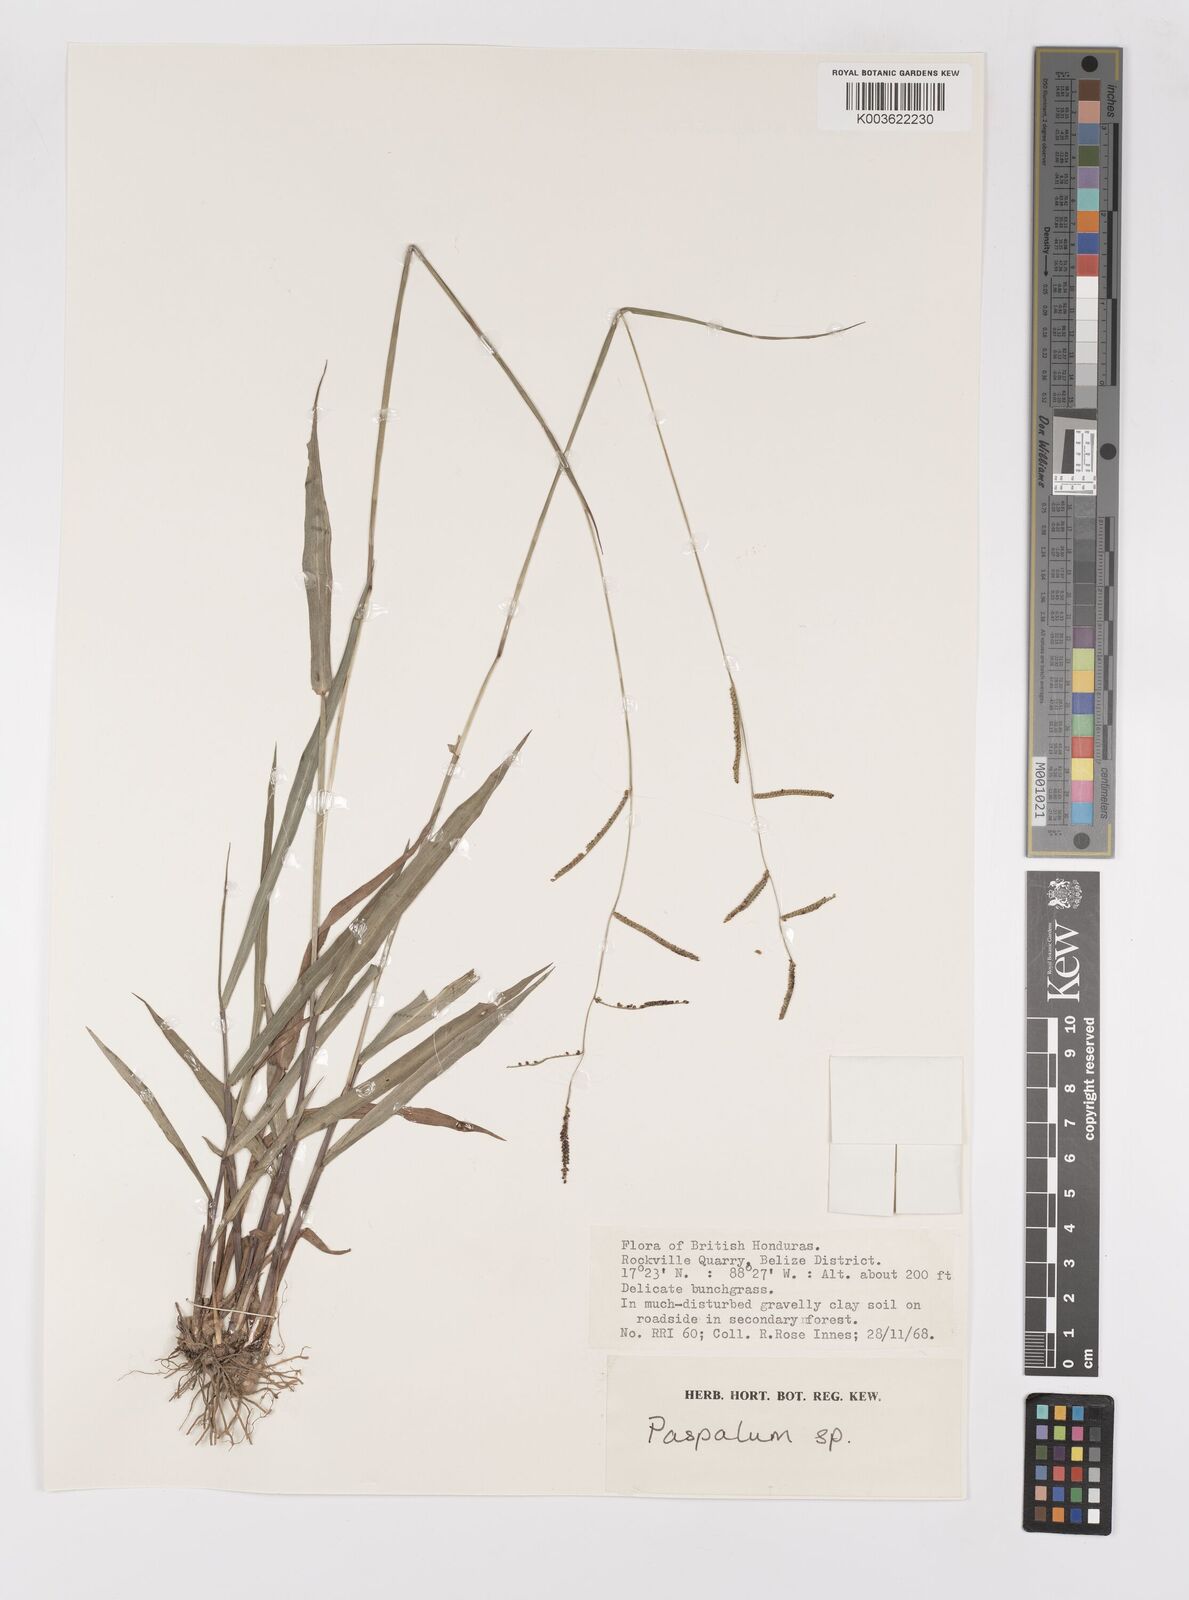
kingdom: Plantae
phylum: Tracheophyta
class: Liliopsida
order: Poales
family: Poaceae
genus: Paspalum
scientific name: Paspalum
